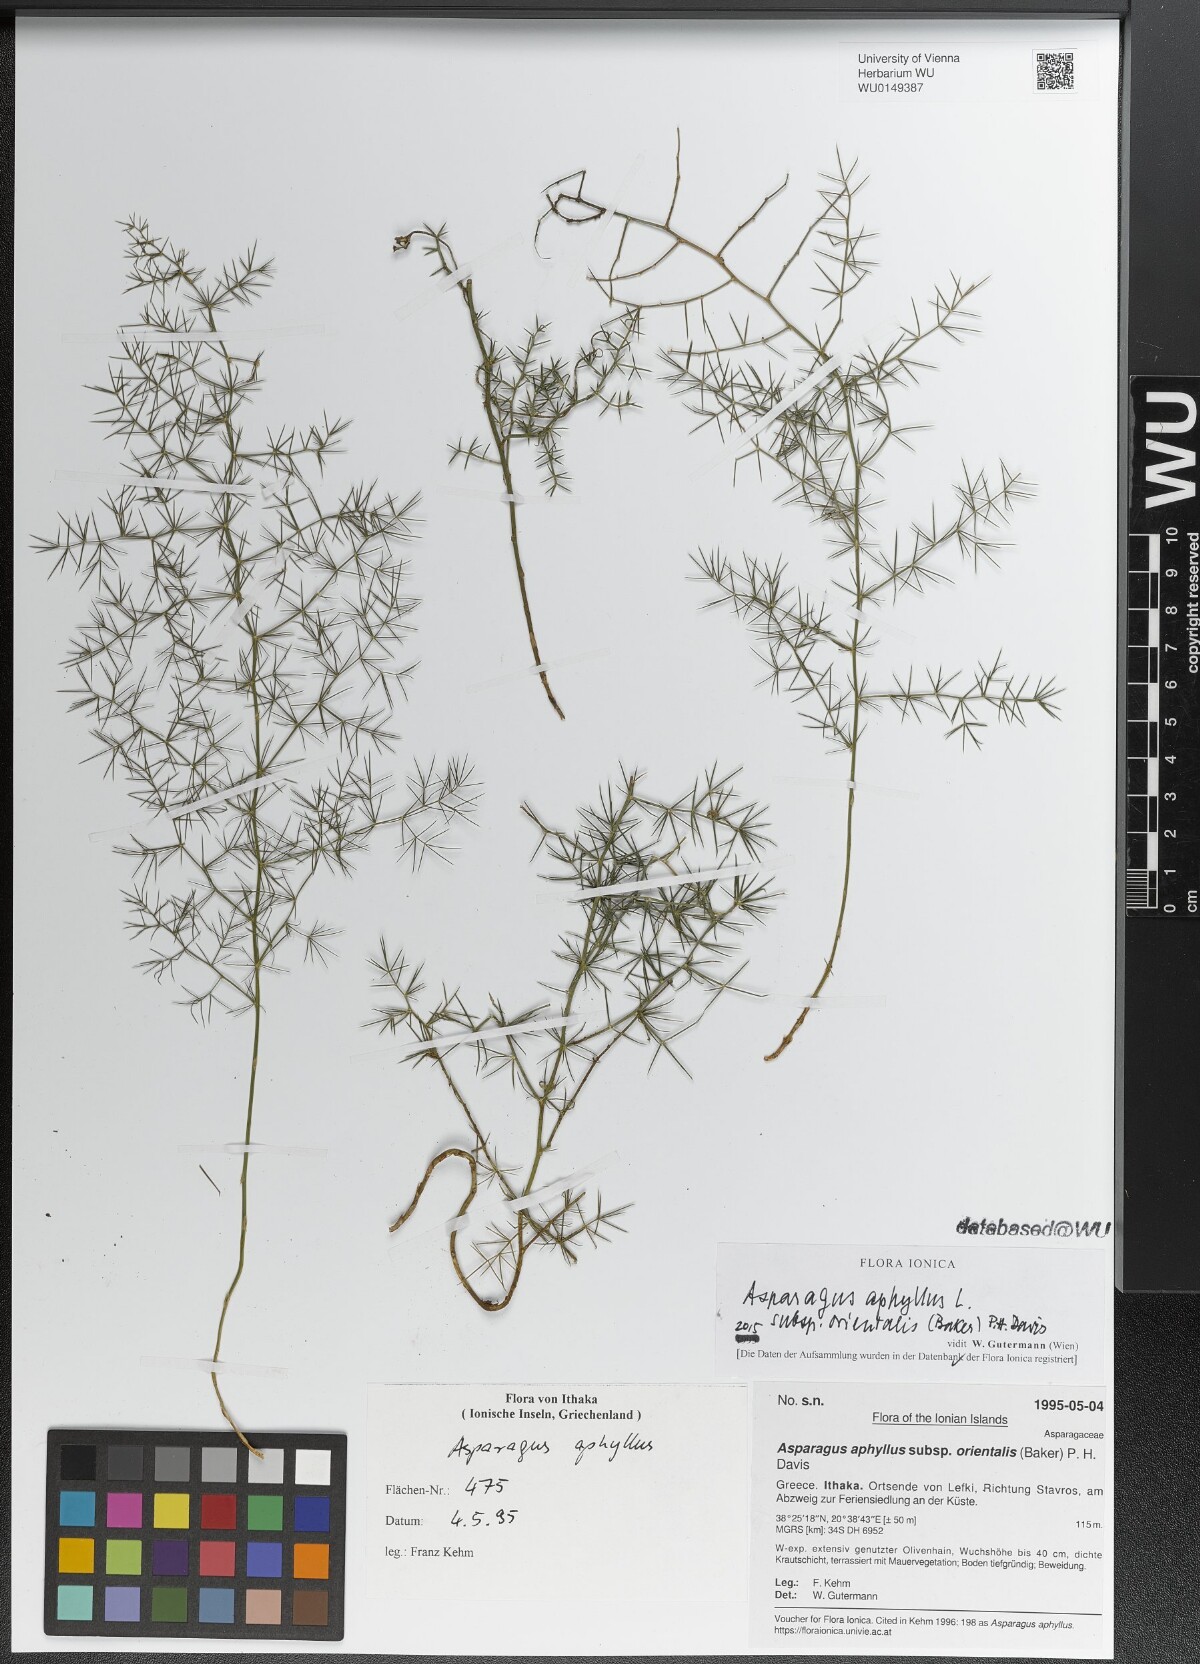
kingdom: Plantae
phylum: Tracheophyta
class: Liliopsida
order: Asparagales
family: Asparagaceae
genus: Asparagus
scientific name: Asparagus aphyllus
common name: Mediterranean asparagus
